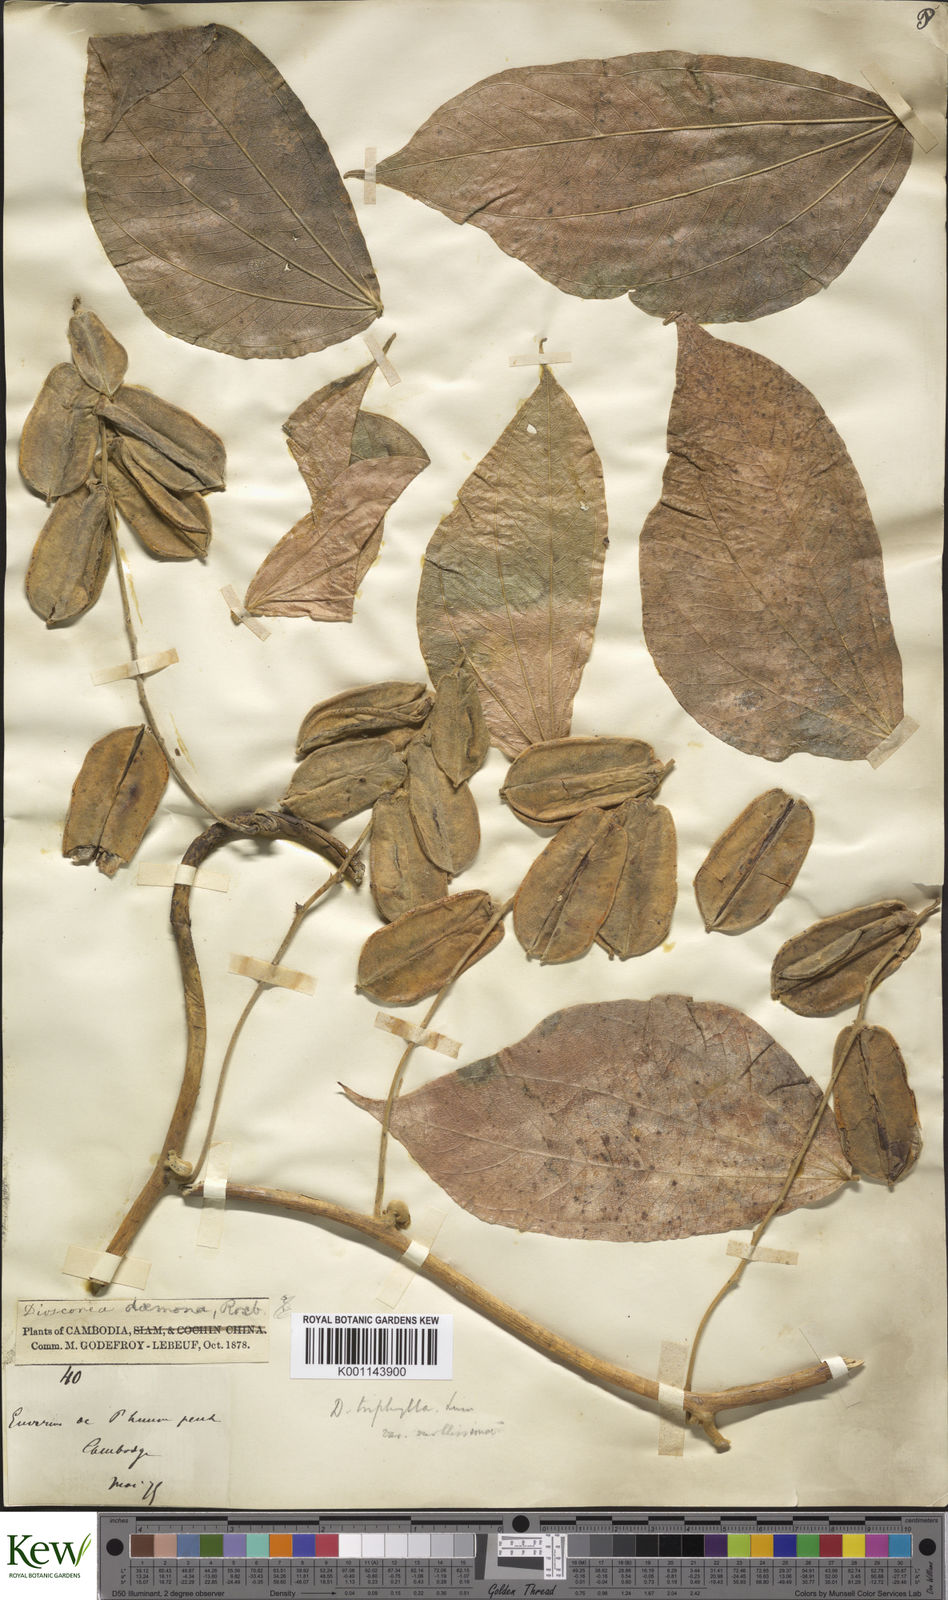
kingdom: Plantae
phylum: Tracheophyta
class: Liliopsida
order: Dioscoreales
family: Dioscoreaceae
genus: Dioscorea
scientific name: Dioscorea hispida
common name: Asiatic bitter yam
